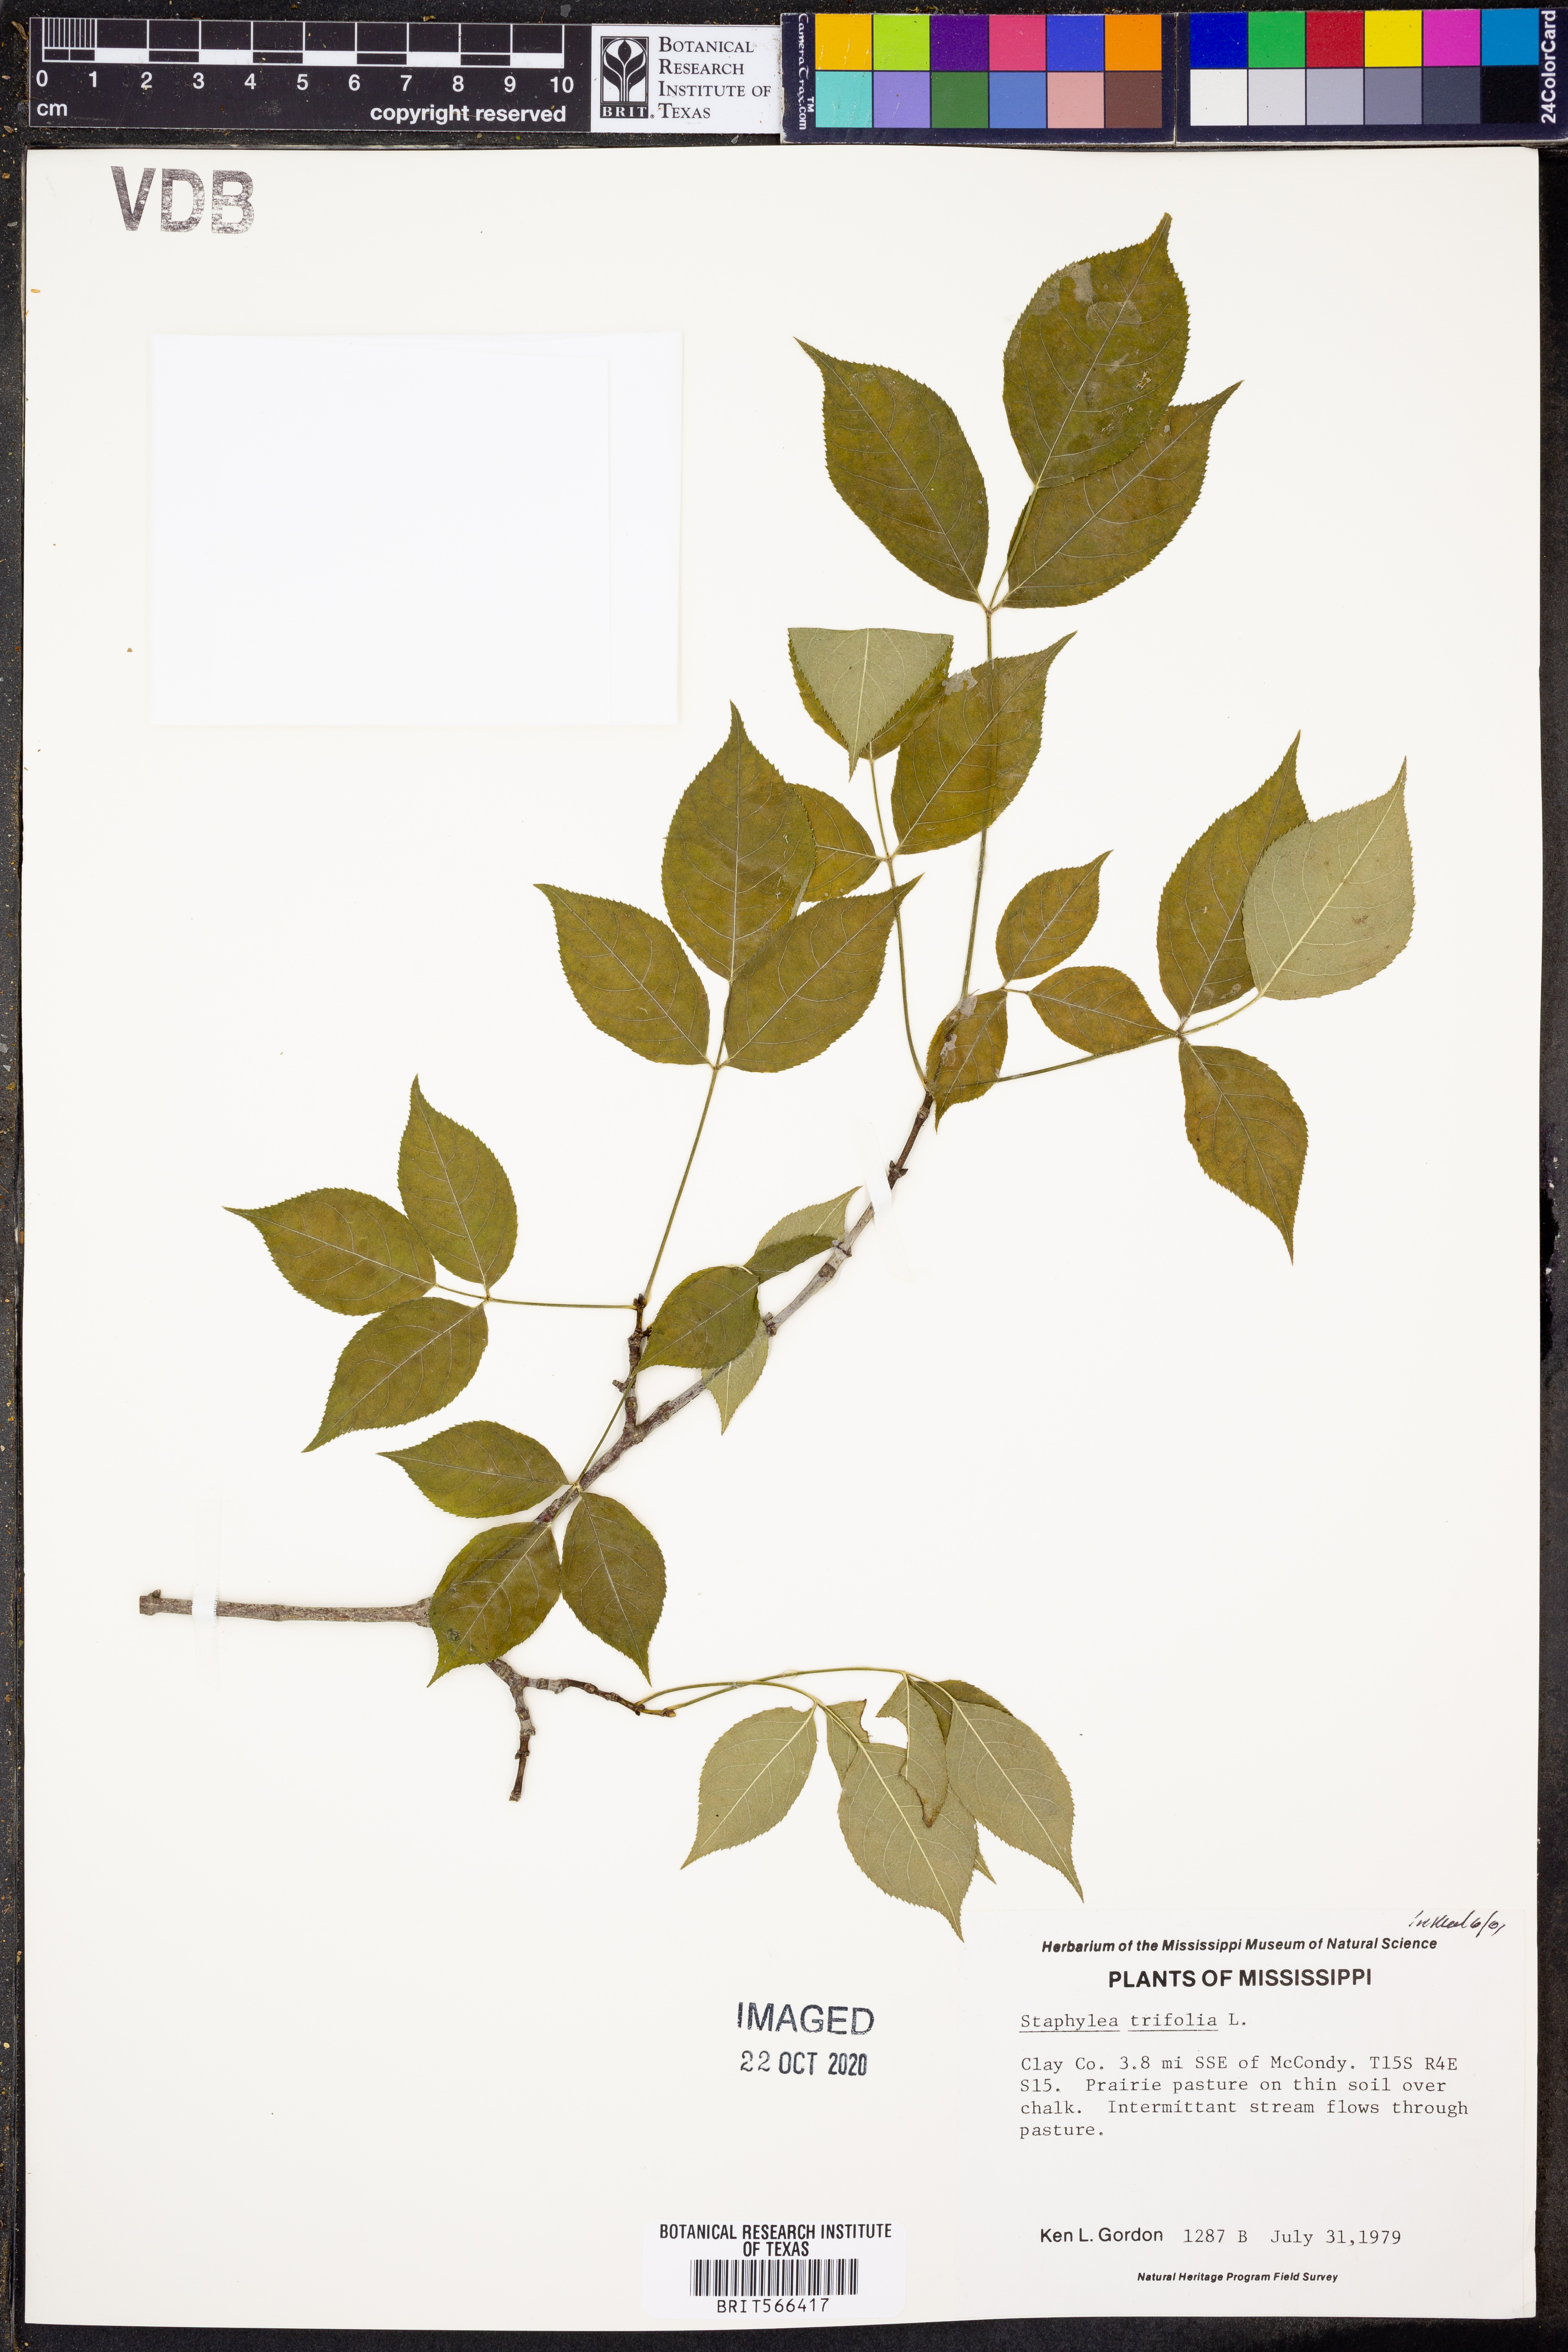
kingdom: Plantae
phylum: Tracheophyta
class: Magnoliopsida
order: Crossosomatales
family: Staphyleaceae
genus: Staphylea
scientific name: Staphylea trifolia
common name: American bladdernut
